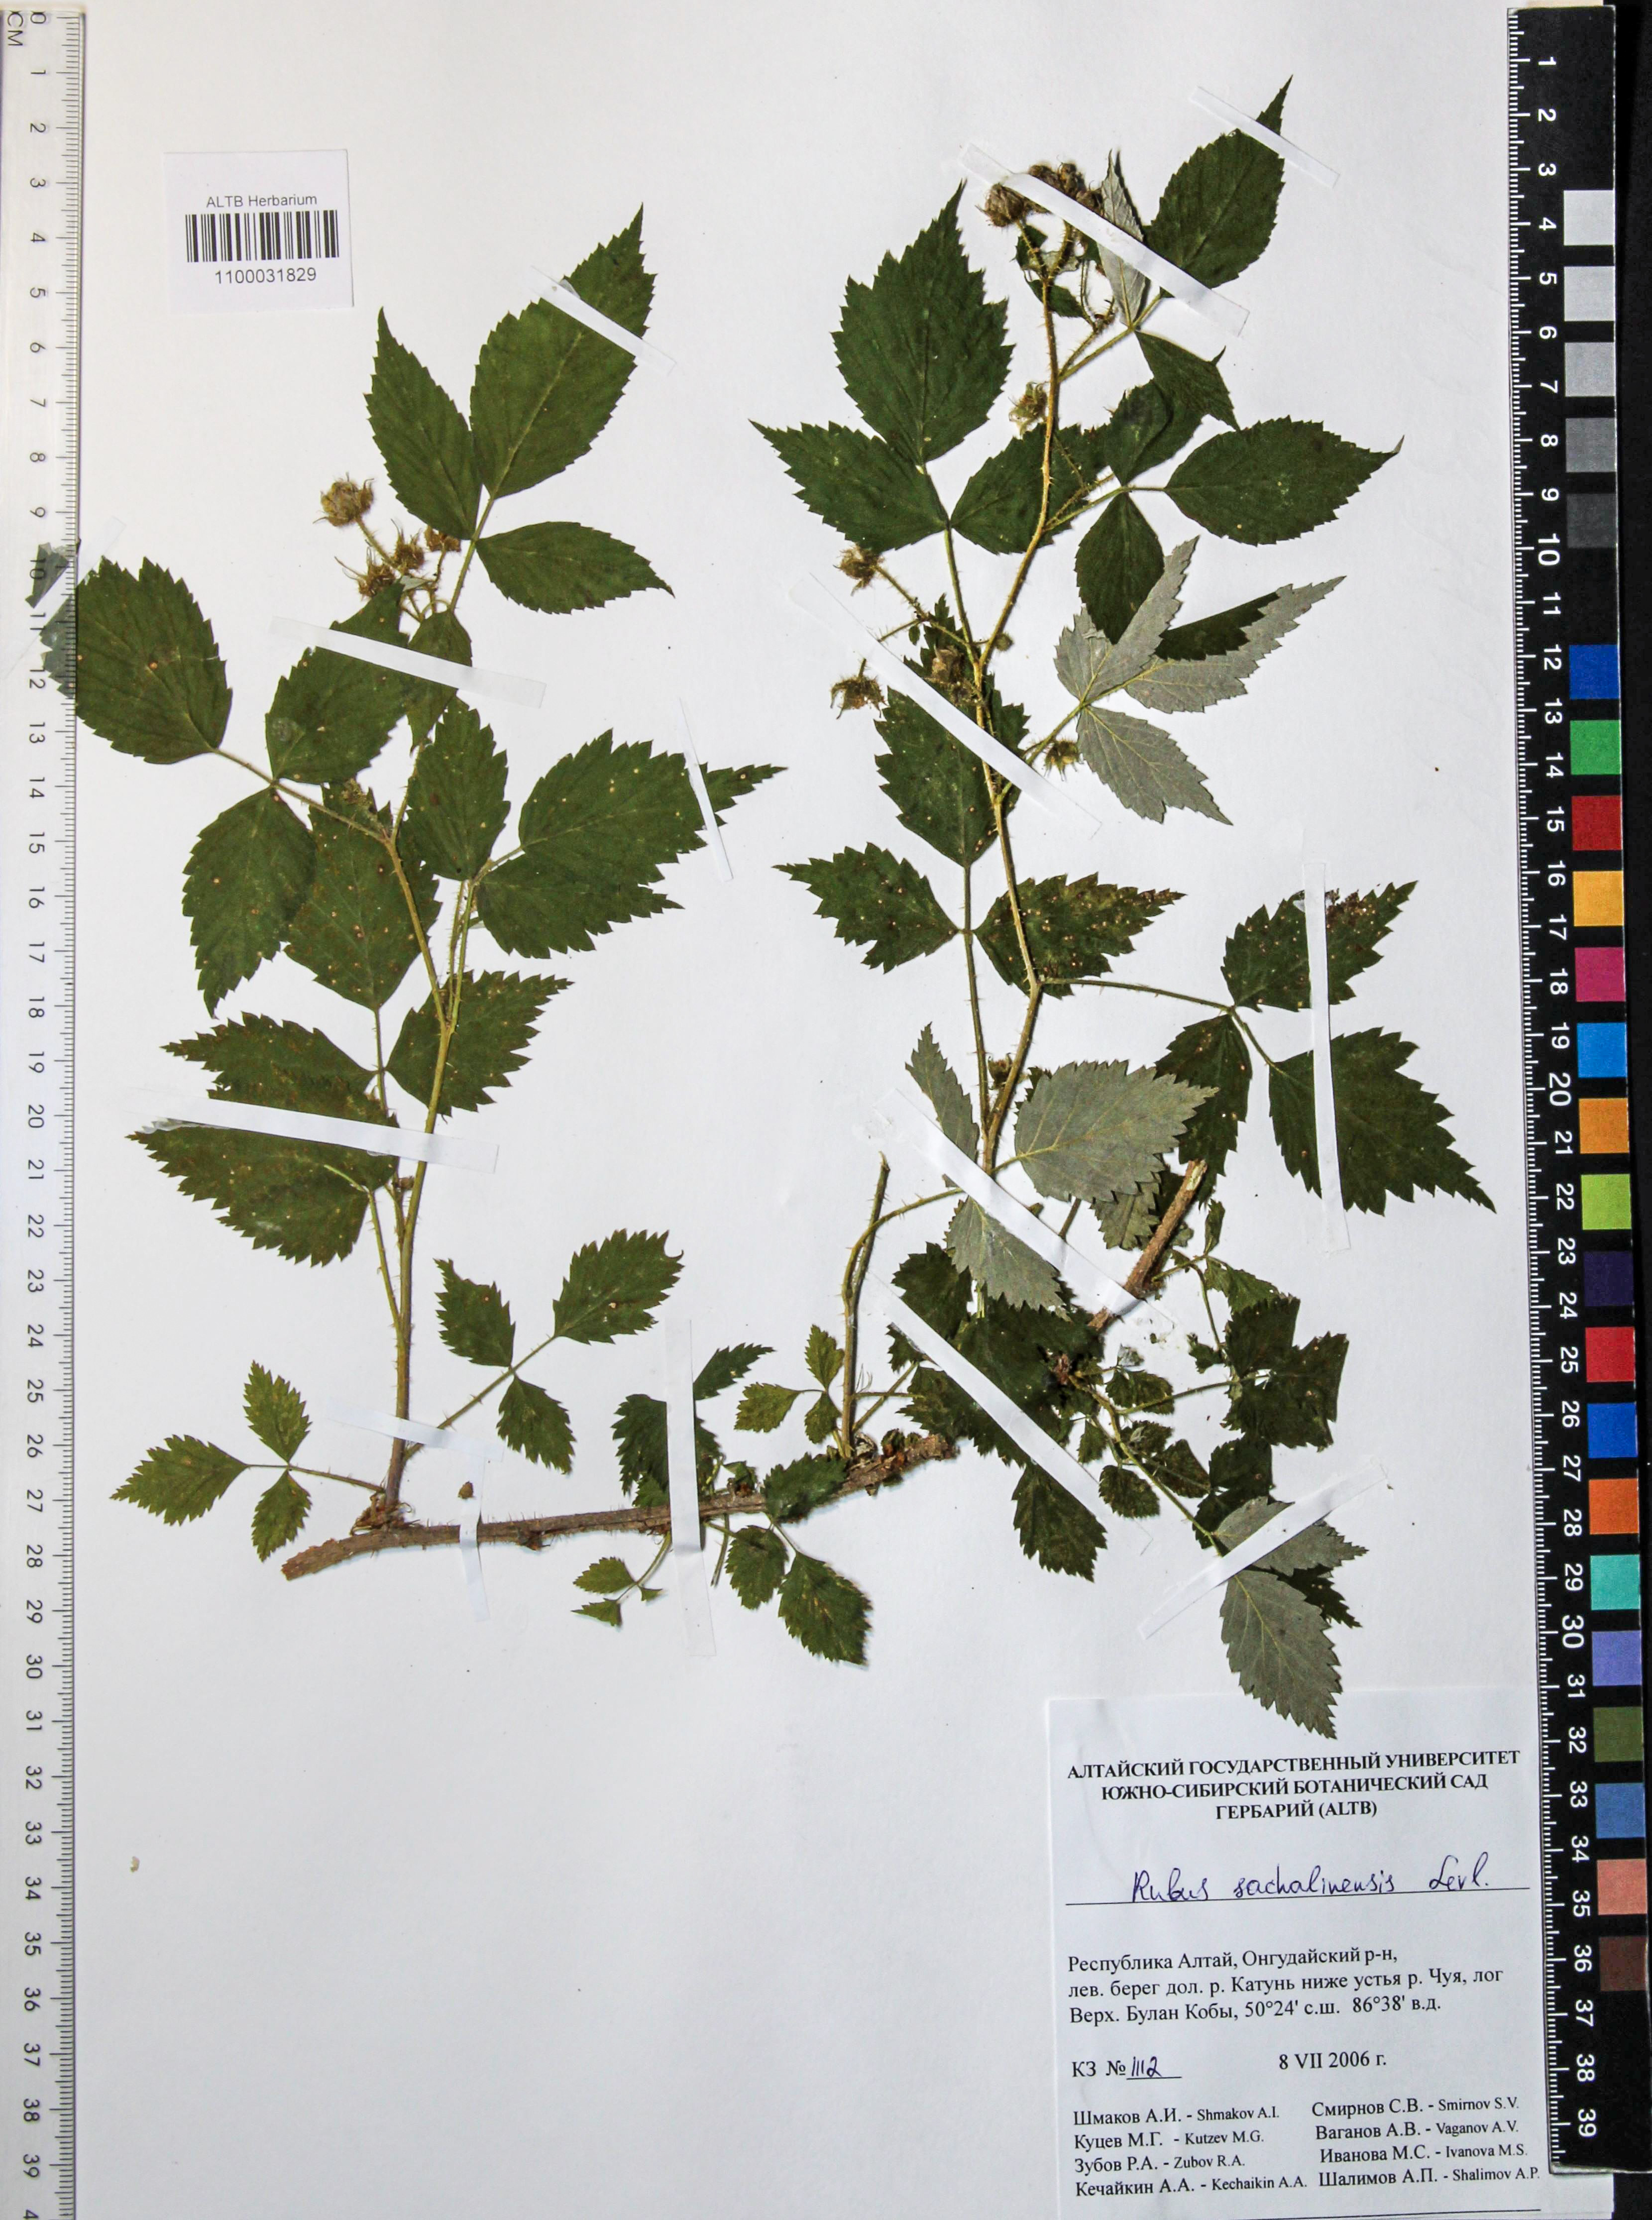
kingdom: Plantae
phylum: Tracheophyta
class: Magnoliopsida
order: Rosales
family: Rosaceae
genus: Rubus
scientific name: Rubus sachalinensis
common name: Red raspberry
